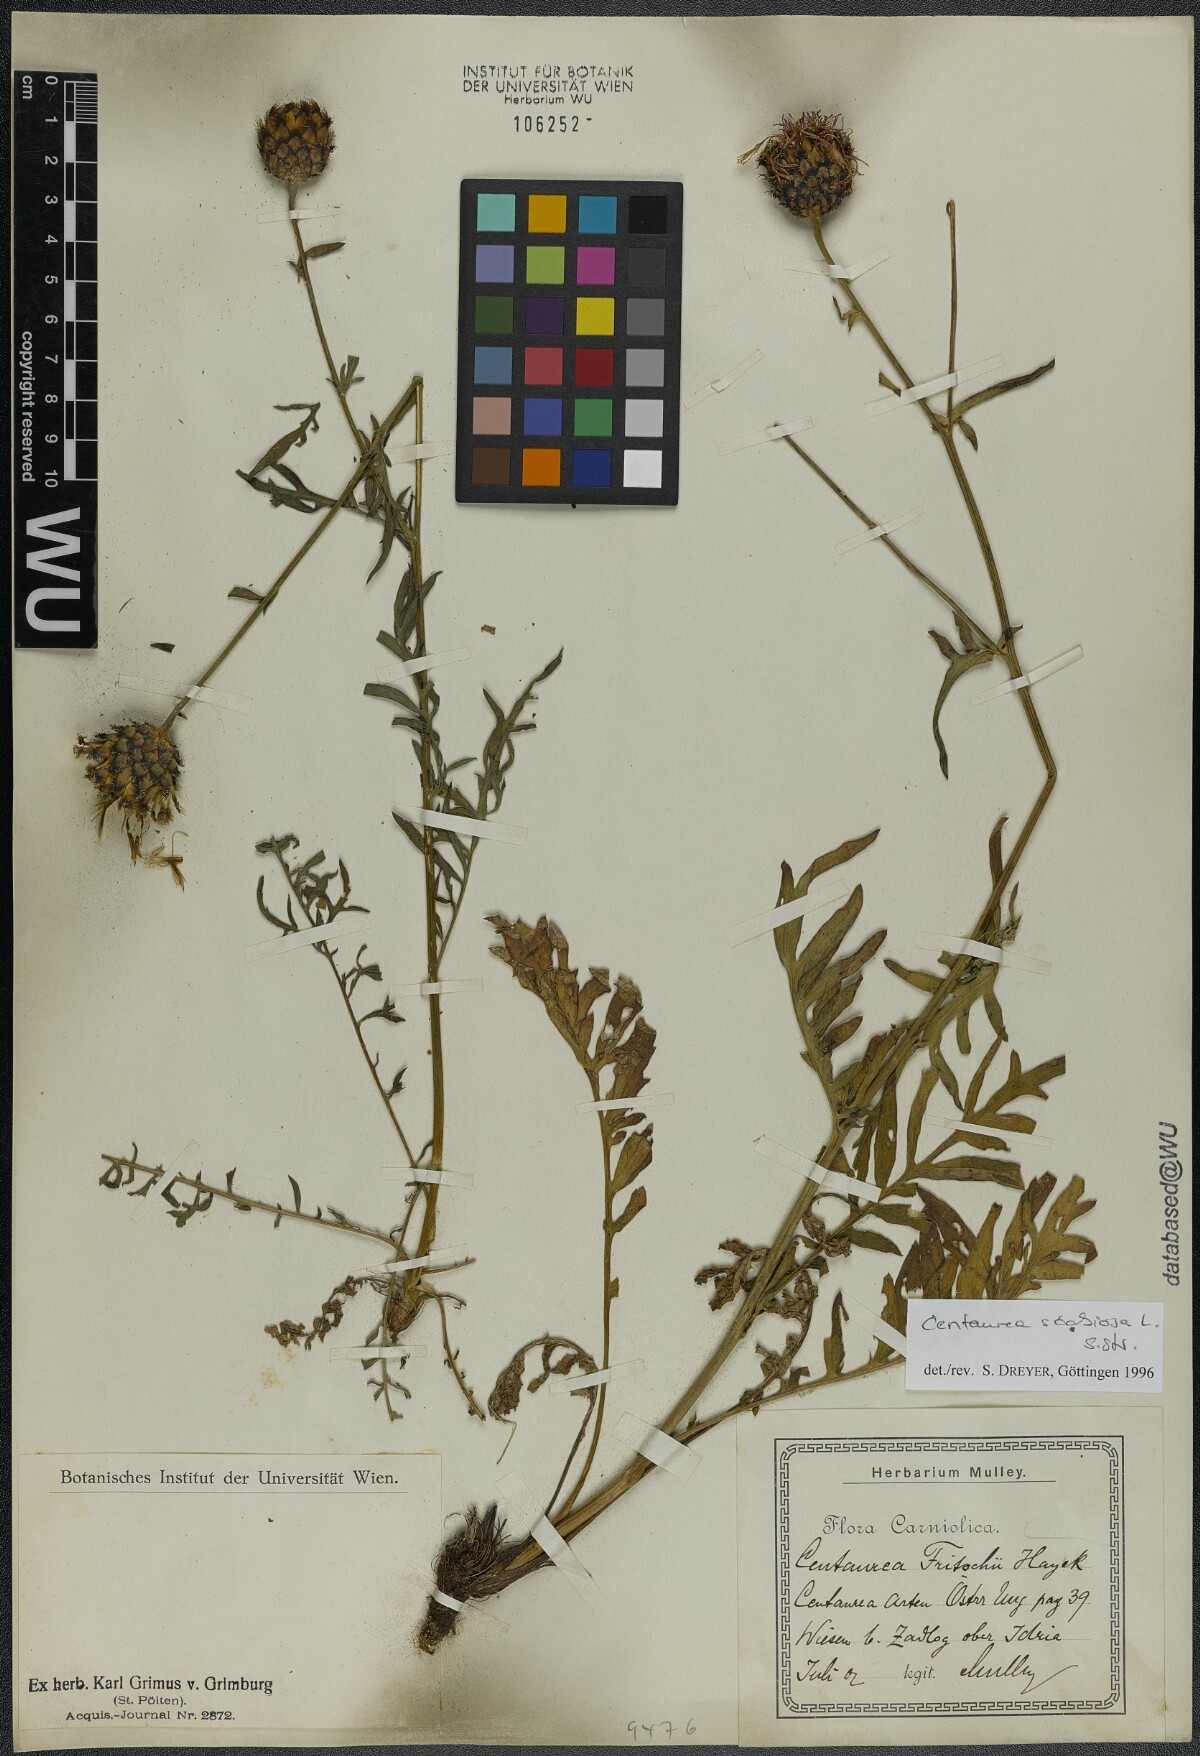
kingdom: Plantae
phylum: Tracheophyta
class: Magnoliopsida
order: Asterales
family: Asteraceae
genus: Centaurea
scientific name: Centaurea scabiosa
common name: Greater knapweed
